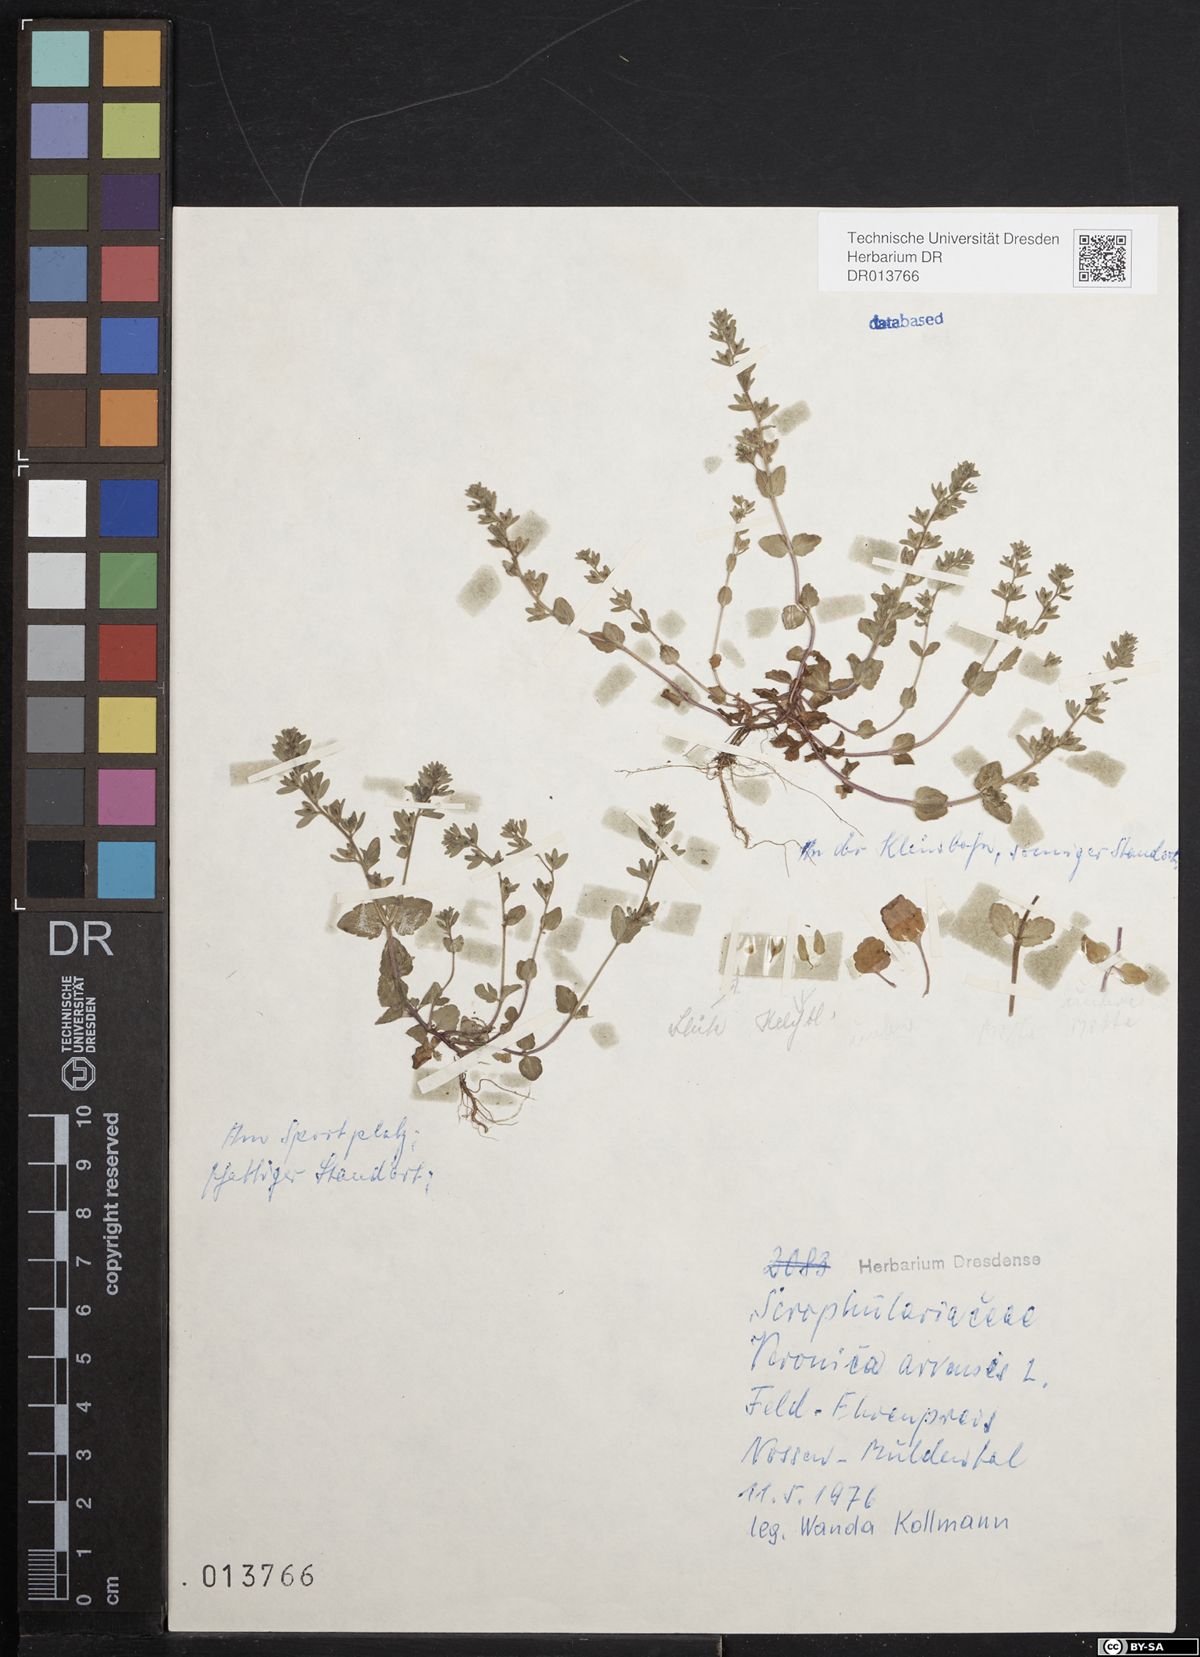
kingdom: Plantae
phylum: Tracheophyta
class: Magnoliopsida
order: Lamiales
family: Plantaginaceae
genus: Veronica
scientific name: Veronica arvensis
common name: Corn speedwell
